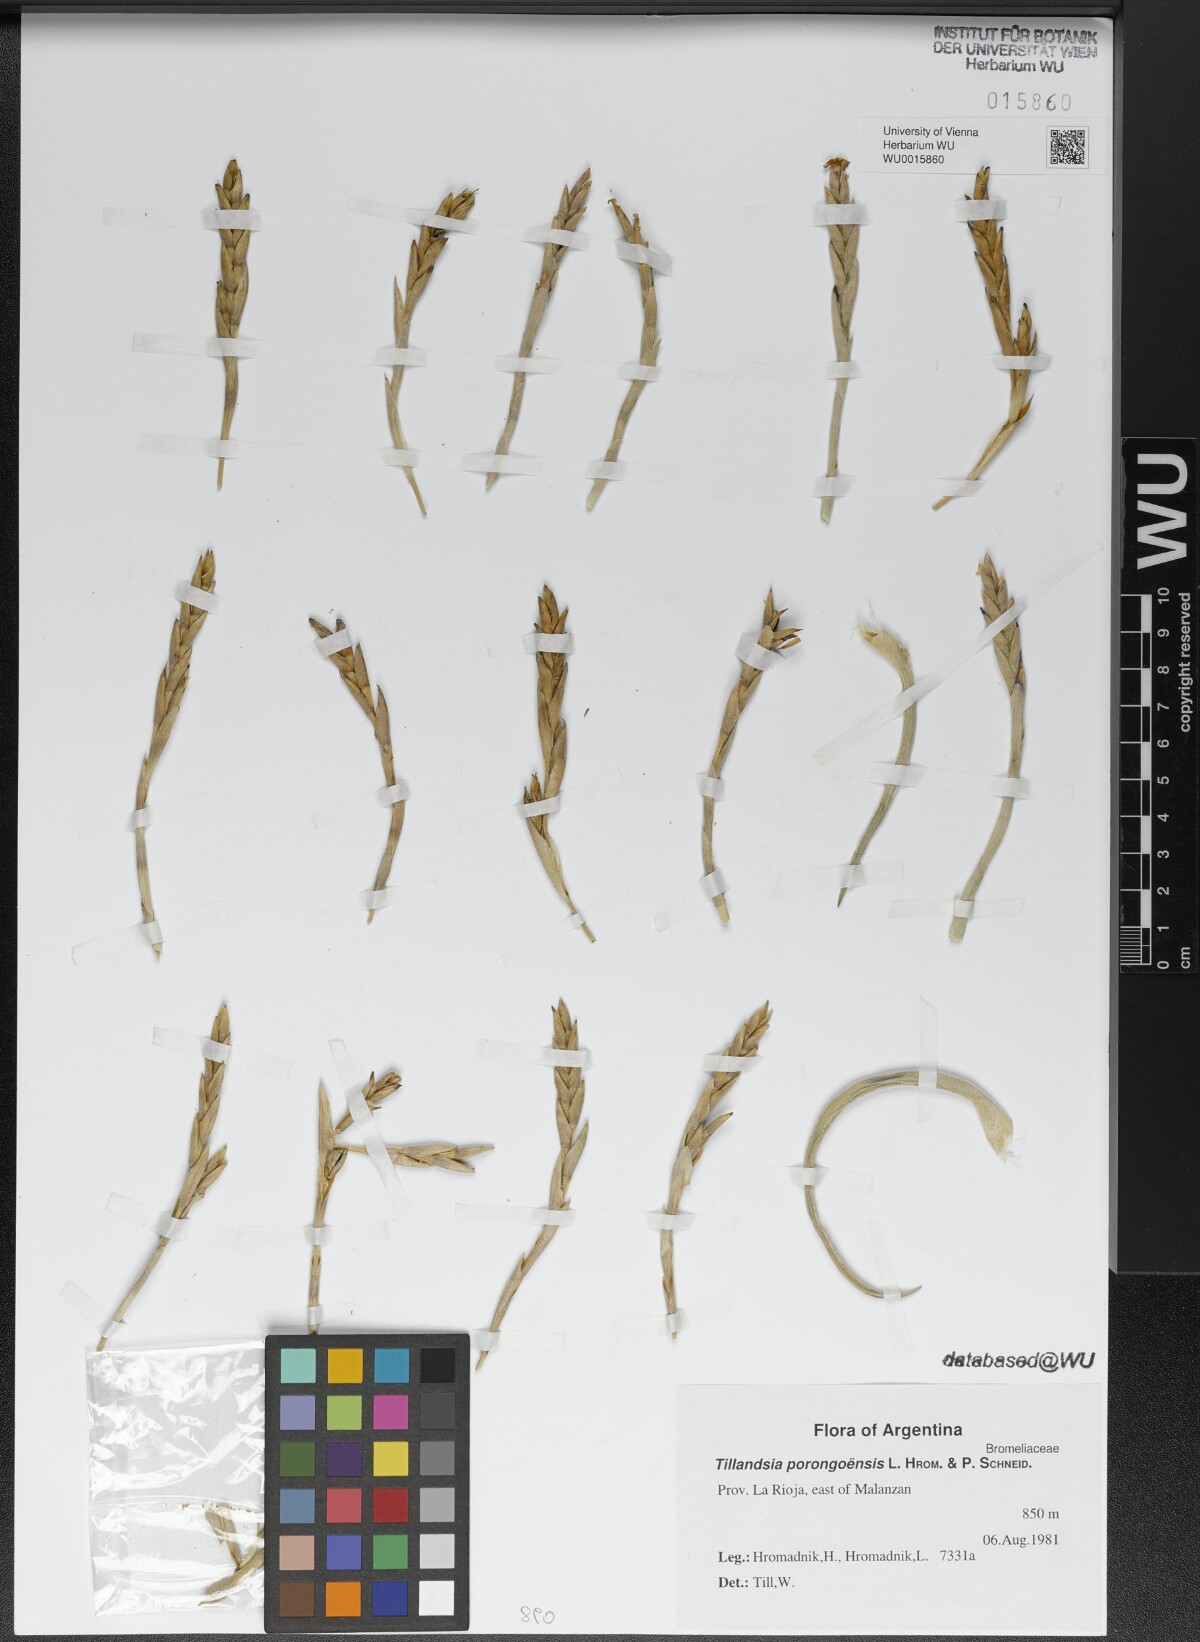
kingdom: Plantae
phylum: Tracheophyta
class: Liliopsida
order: Poales
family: Bromeliaceae
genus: Tillandsia
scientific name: Tillandsia porongoensis
